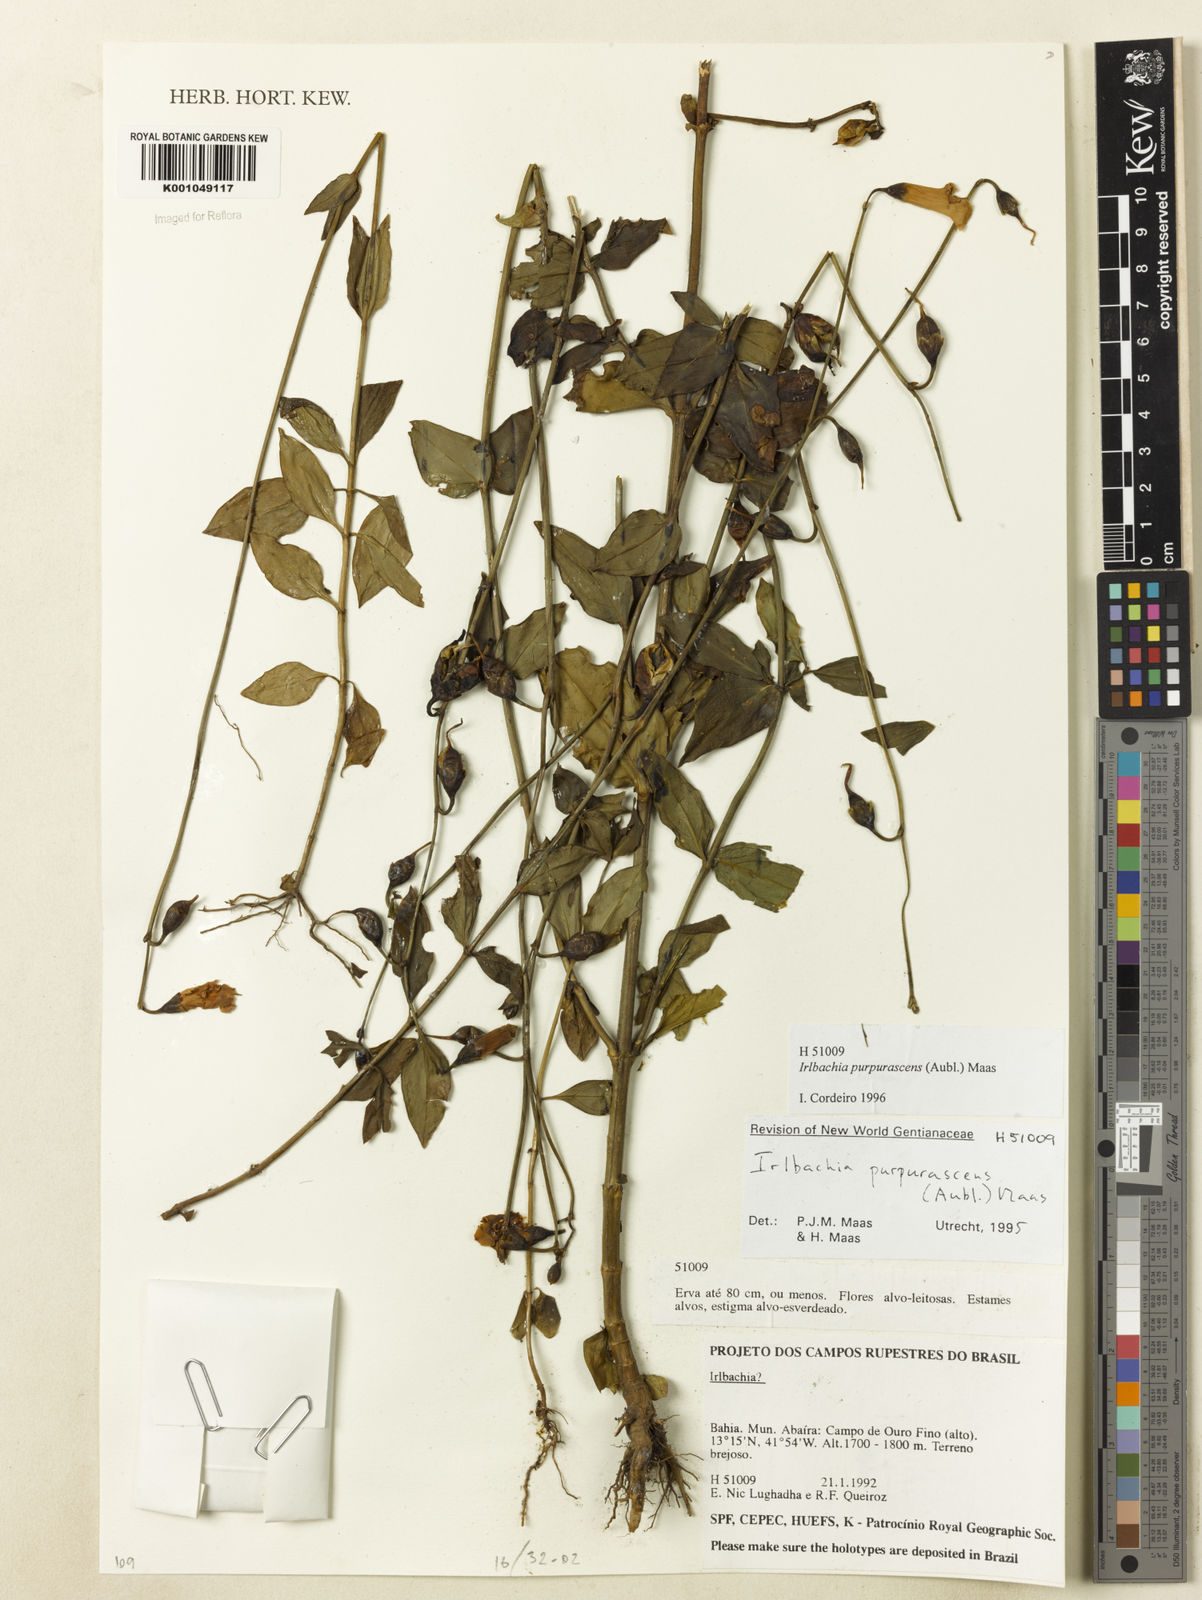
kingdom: Plantae
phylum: Tracheophyta
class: Magnoliopsida
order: Gentianales
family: Gentianaceae
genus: Chelonanthus
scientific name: Chelonanthus purpurascens
